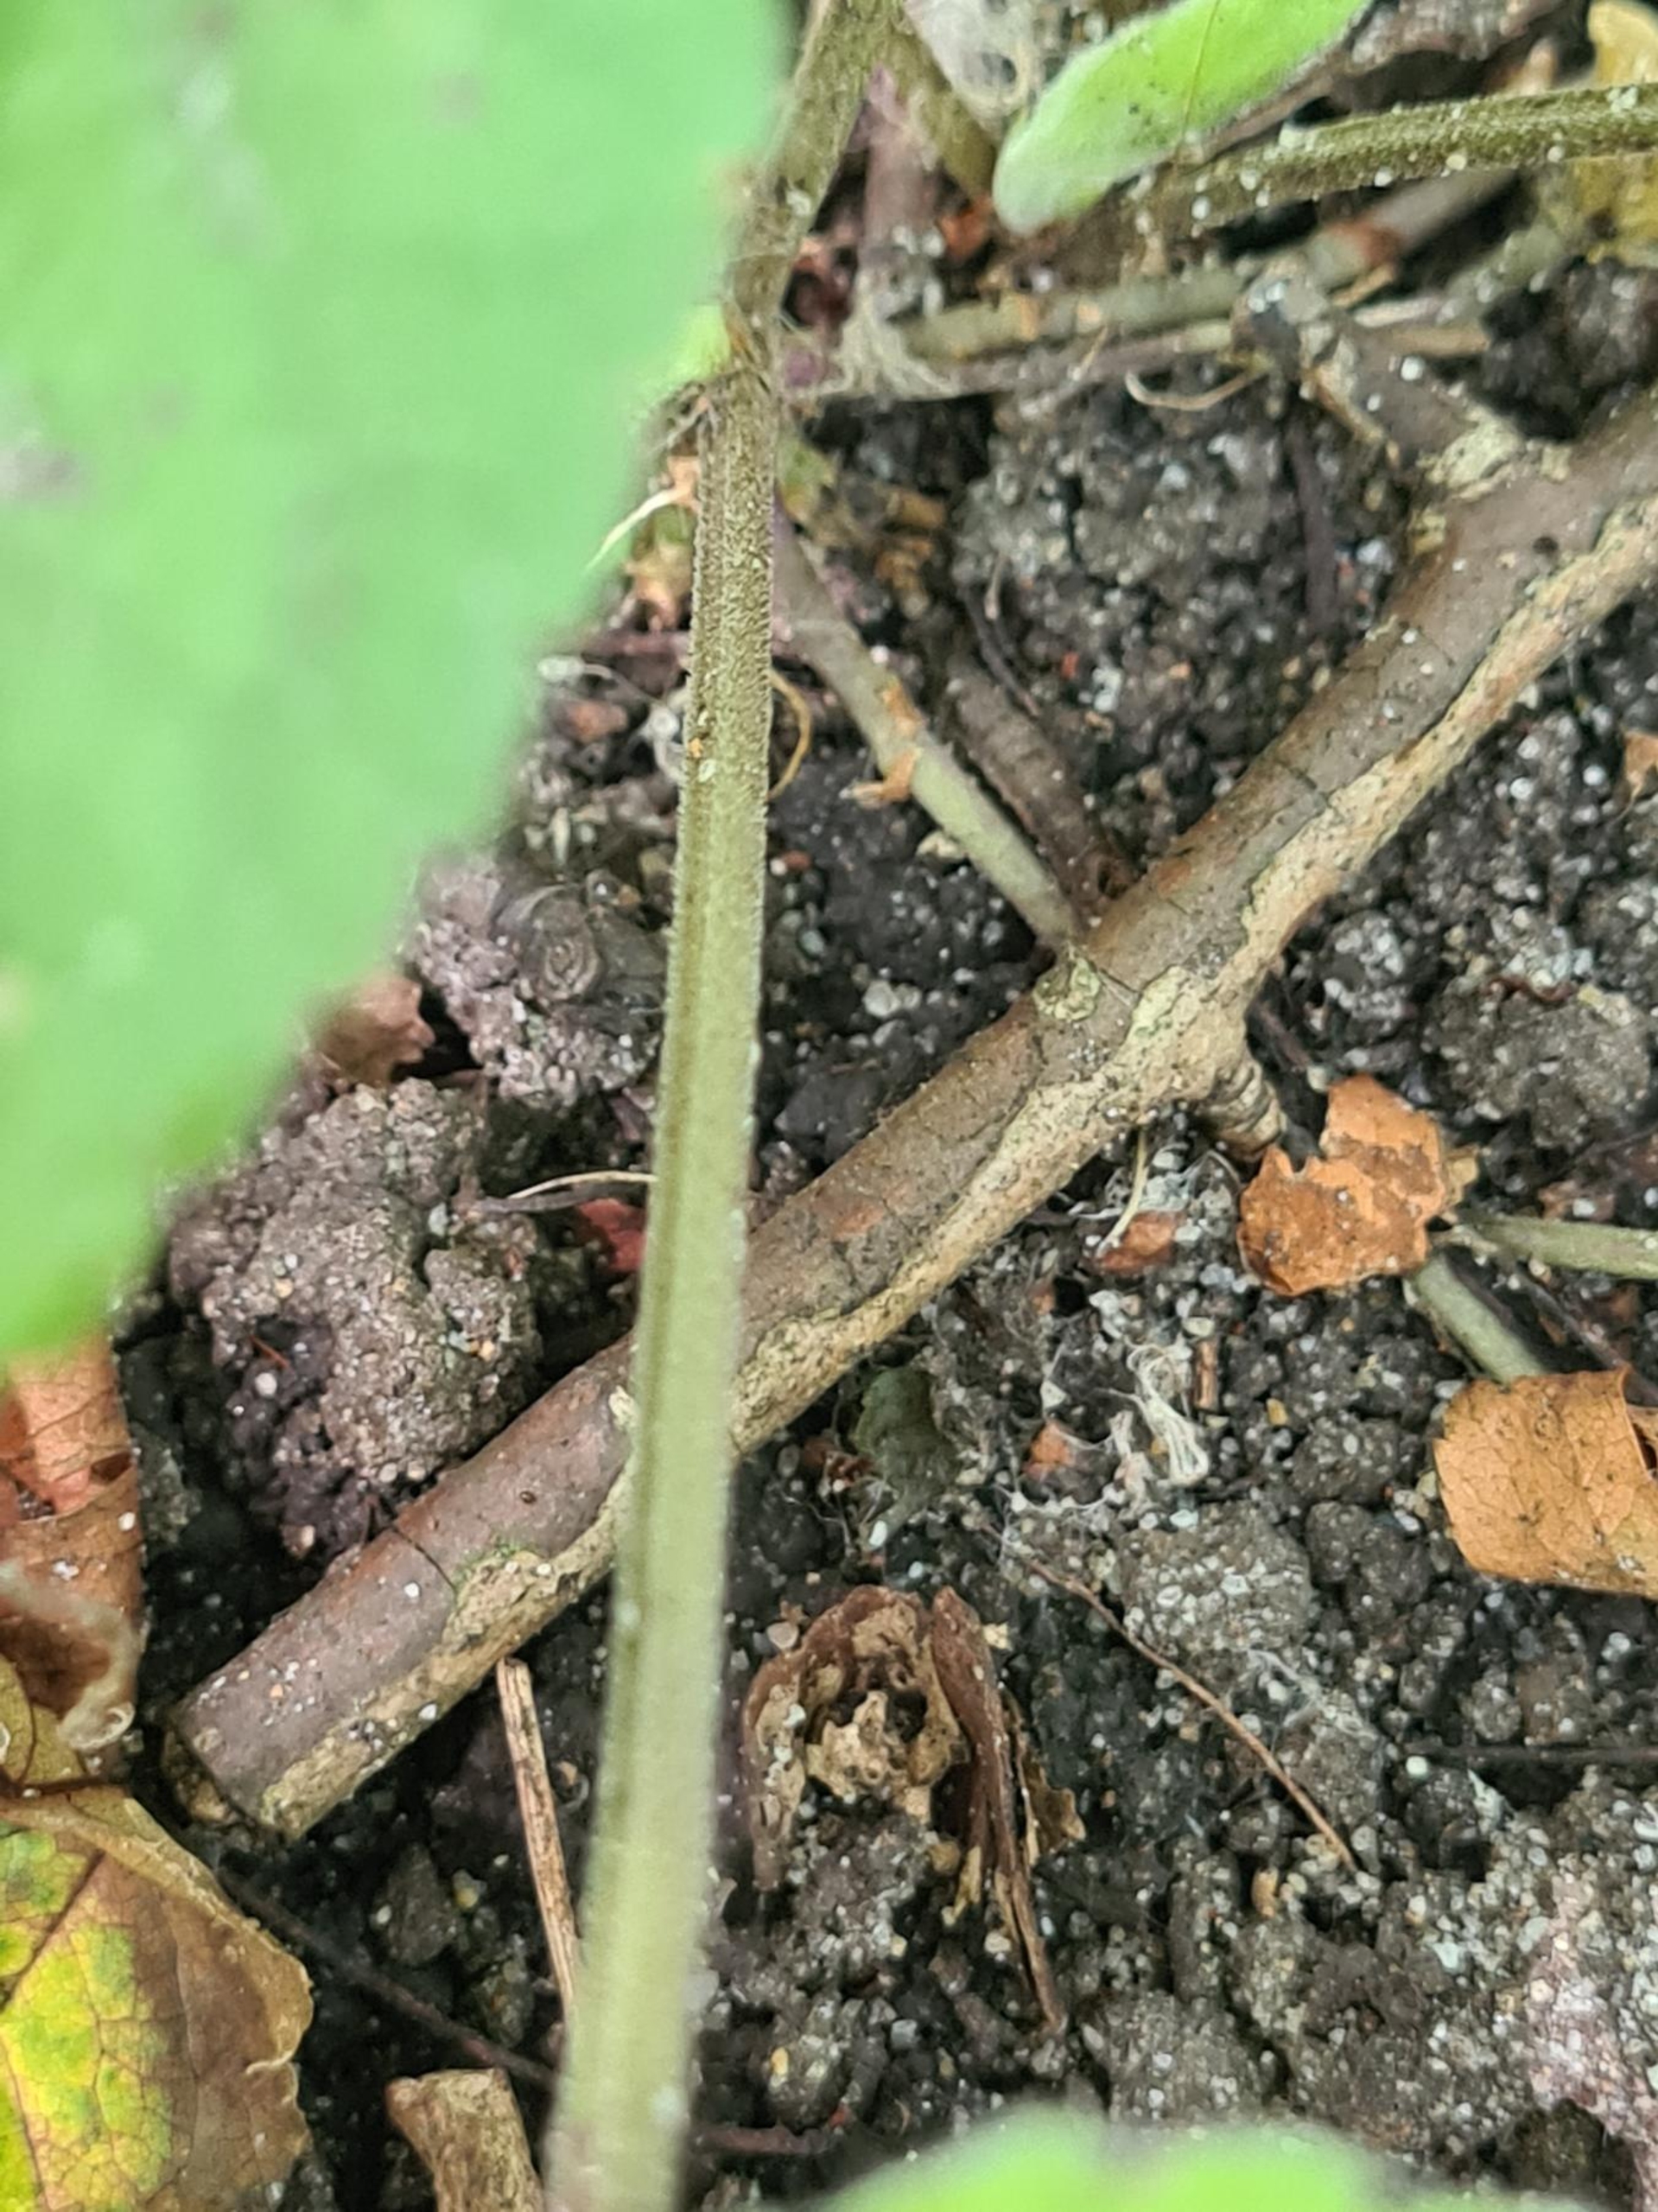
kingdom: Plantae
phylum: Tracheophyta
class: Magnoliopsida
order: Malpighiales
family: Violaceae
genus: Viola
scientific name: Viola odorata
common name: Marts-viol
